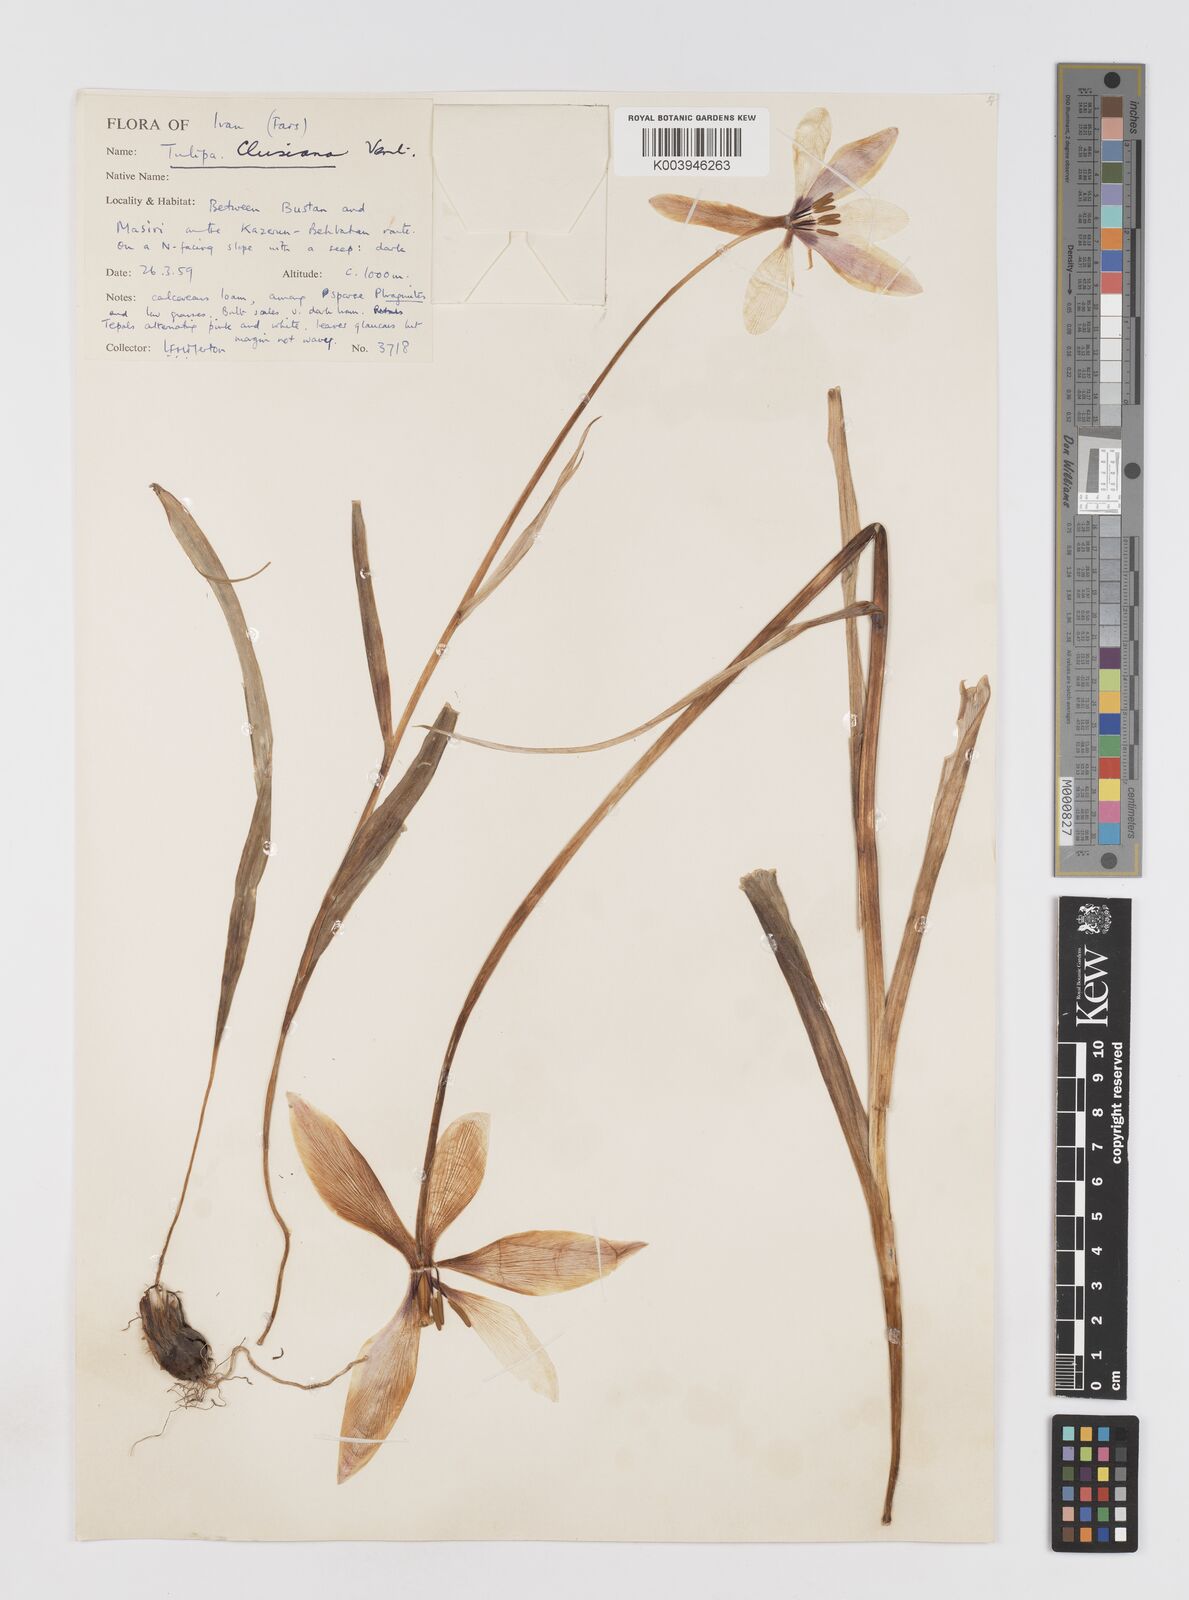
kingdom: Plantae
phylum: Tracheophyta
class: Liliopsida
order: Liliales
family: Liliaceae
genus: Tulipa
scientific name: Tulipa clusiana
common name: Lady tulip
